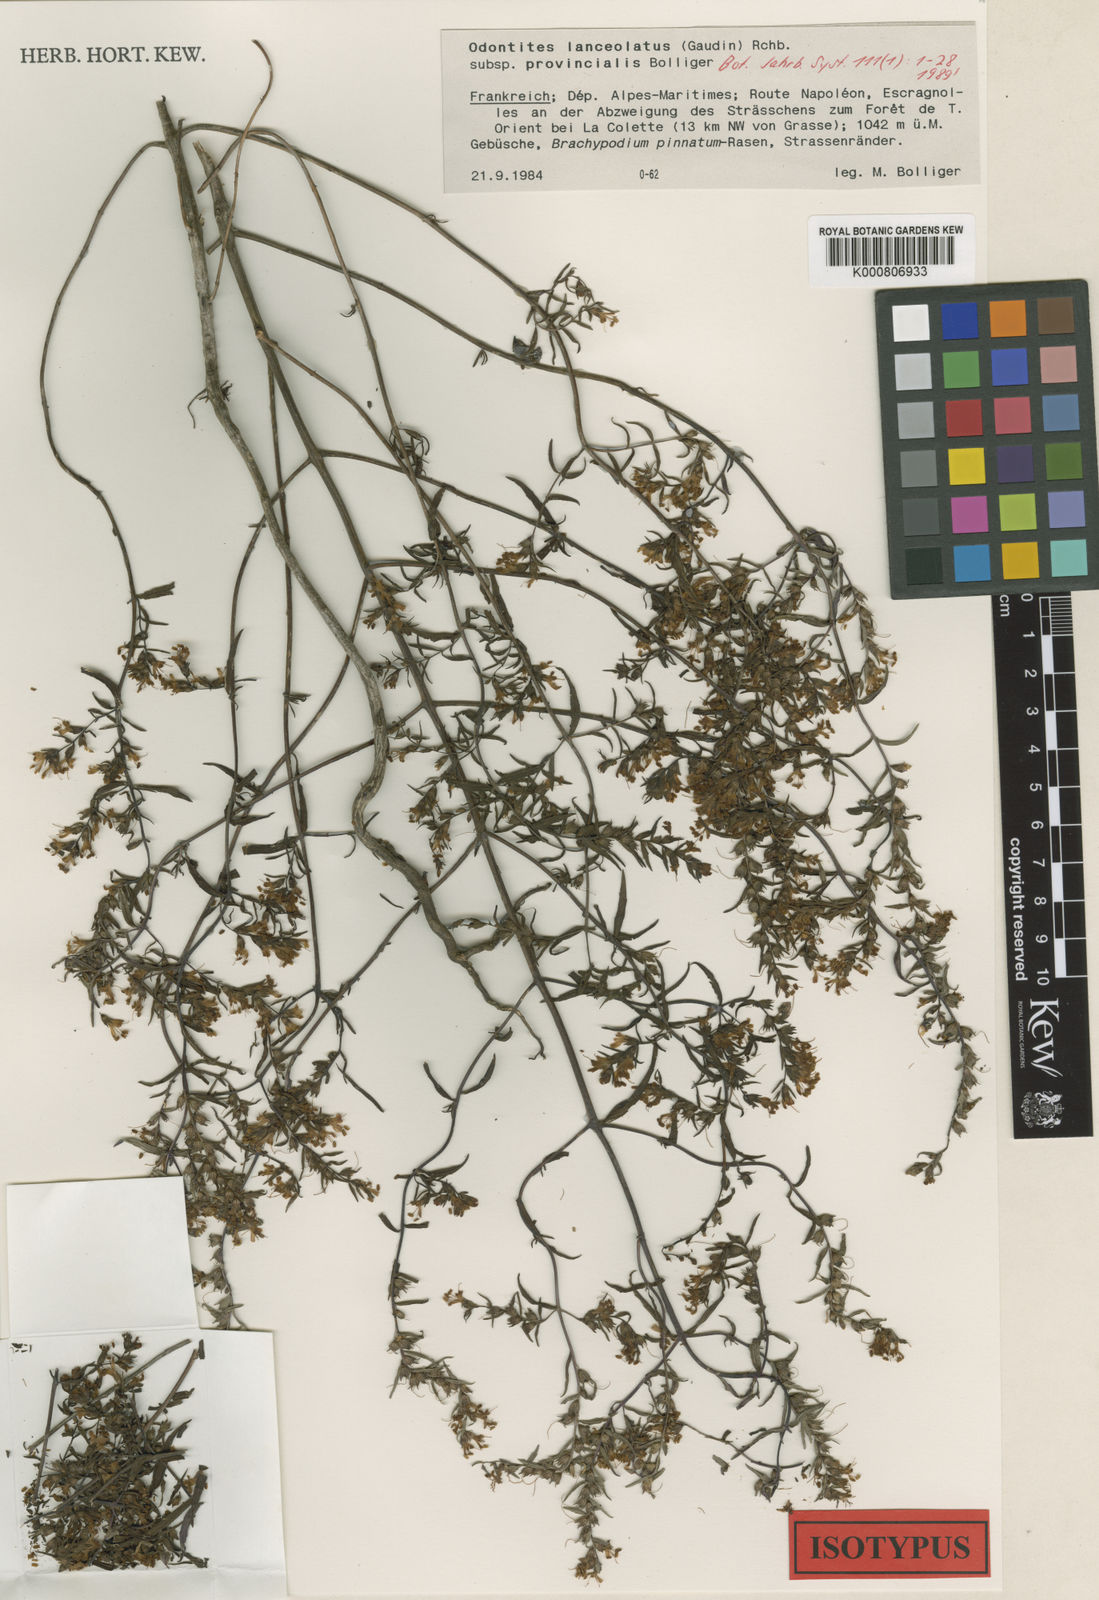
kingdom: Plantae
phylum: Tracheophyta
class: Magnoliopsida
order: Lamiales
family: Orobanchaceae
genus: Odontites
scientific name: Odontites lanceolatus
